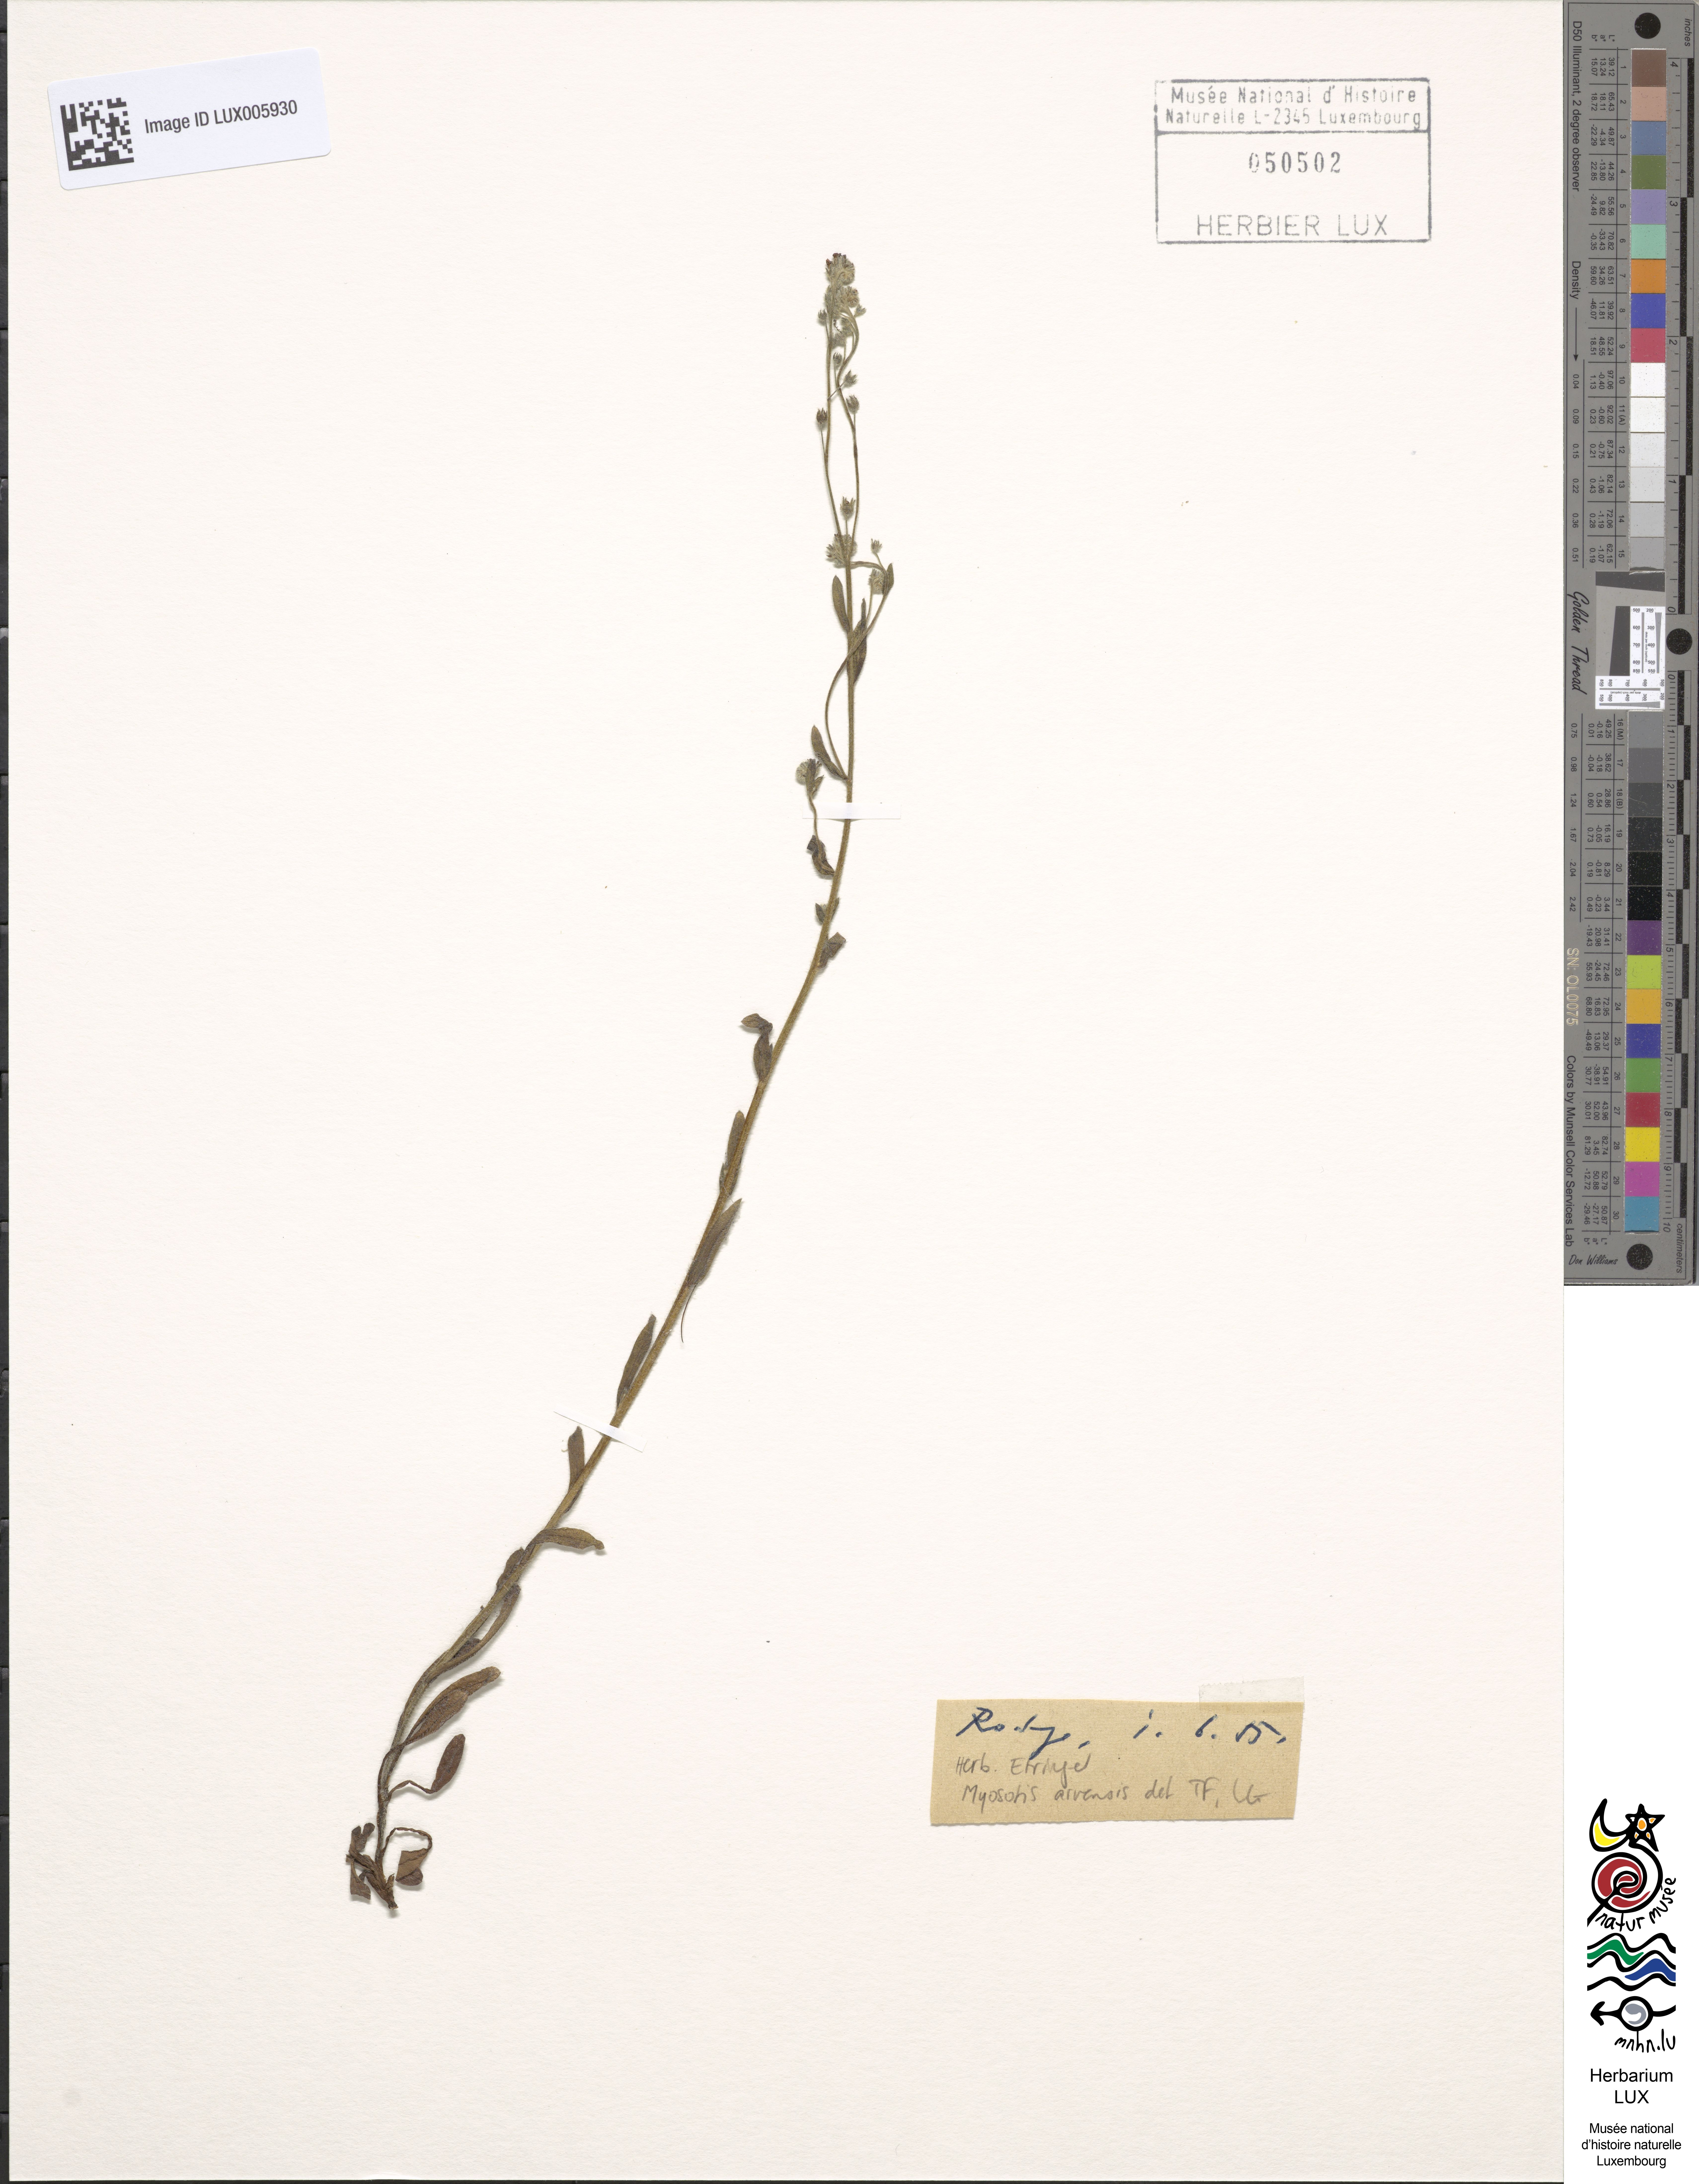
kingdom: Plantae
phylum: Tracheophyta
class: Magnoliopsida
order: Boraginales
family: Boraginaceae
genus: Myosotis
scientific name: Myosotis arvensis
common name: Field forget-me-not
